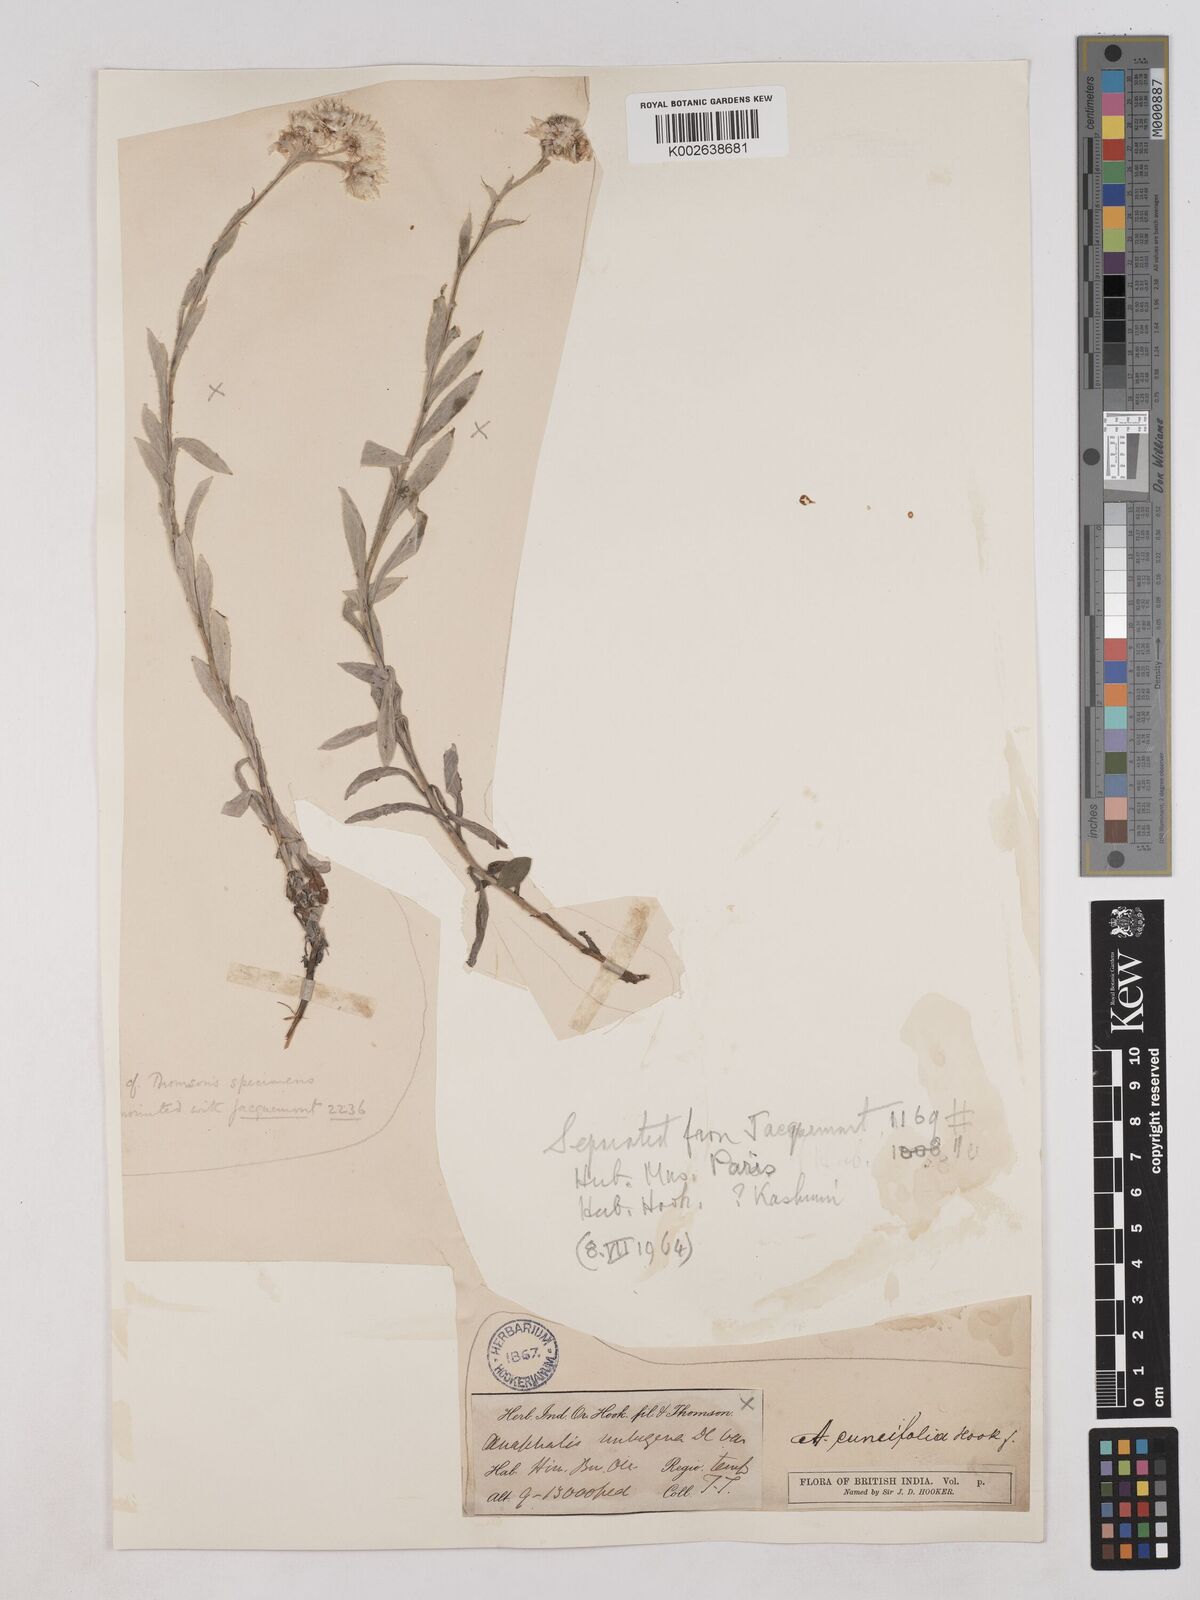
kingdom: Plantae
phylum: Tracheophyta
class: Magnoliopsida
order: Asterales
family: Asteraceae
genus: Anaphalioides
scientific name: Anaphalioides trinervis
